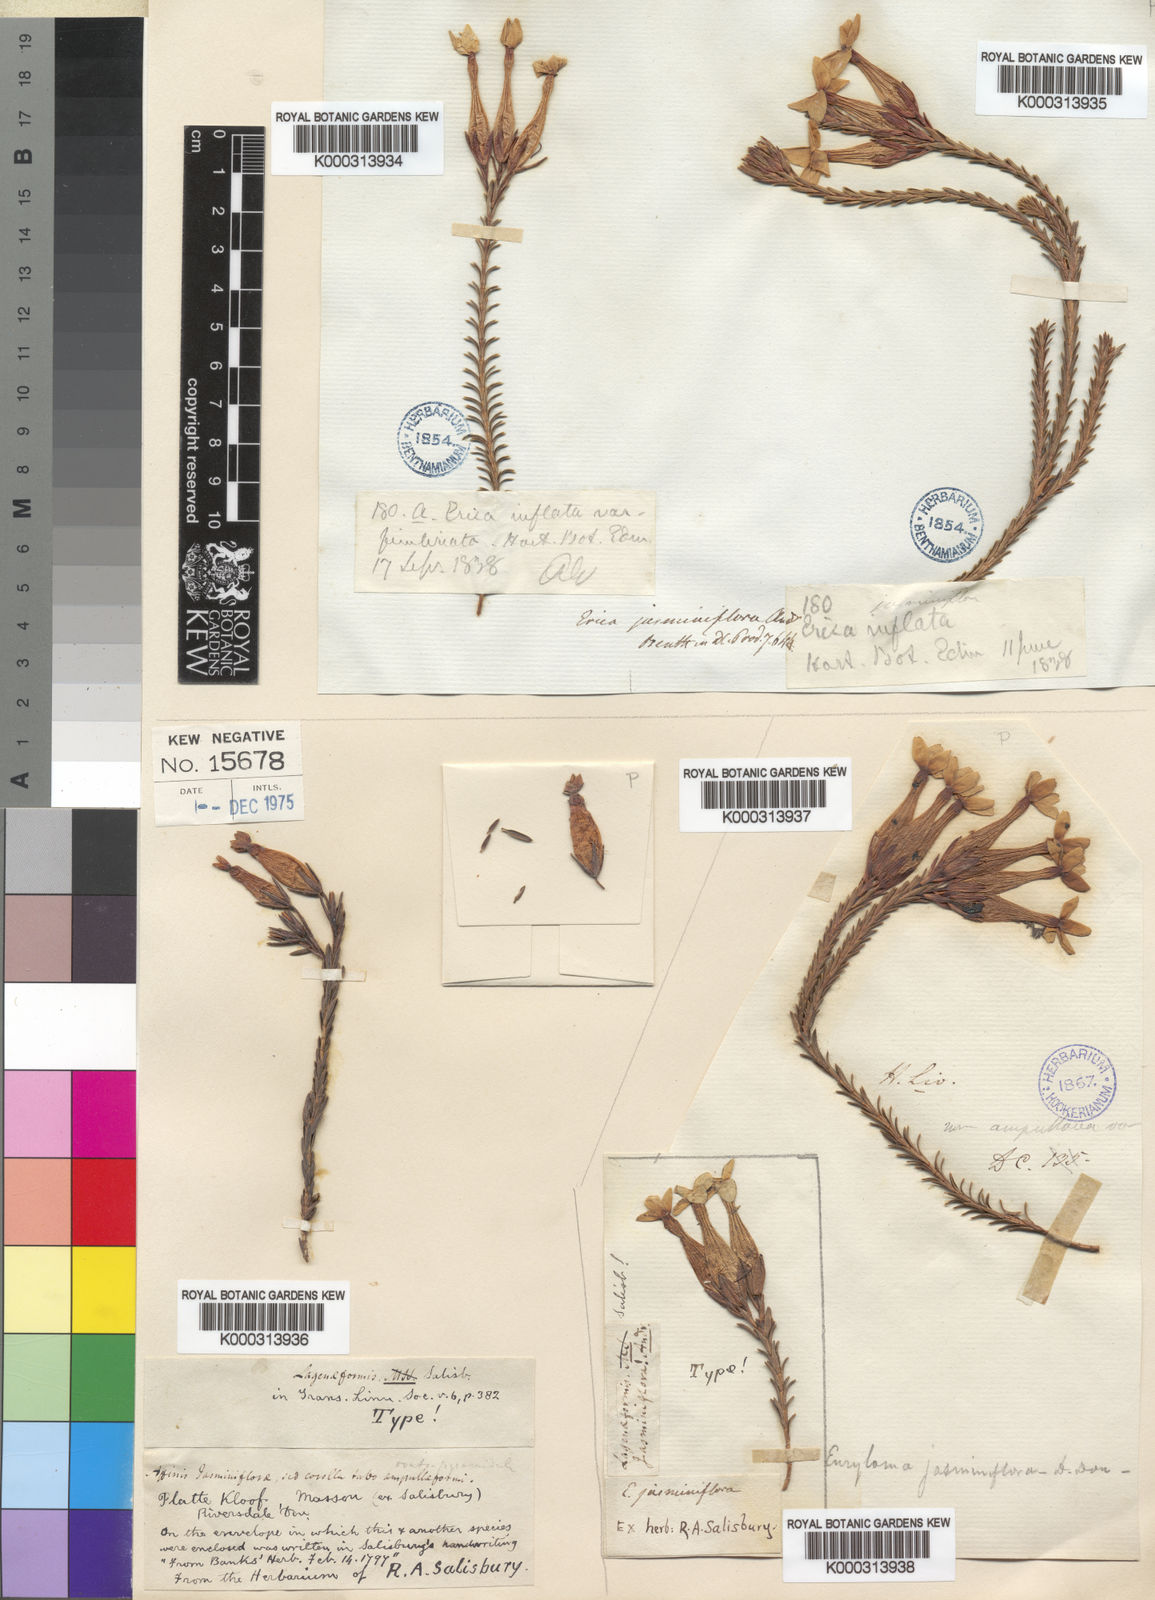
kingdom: Plantae
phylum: Tracheophyta
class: Magnoliopsida
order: Ericales
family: Ericaceae
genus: Erica
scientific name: Erica lageniformis
